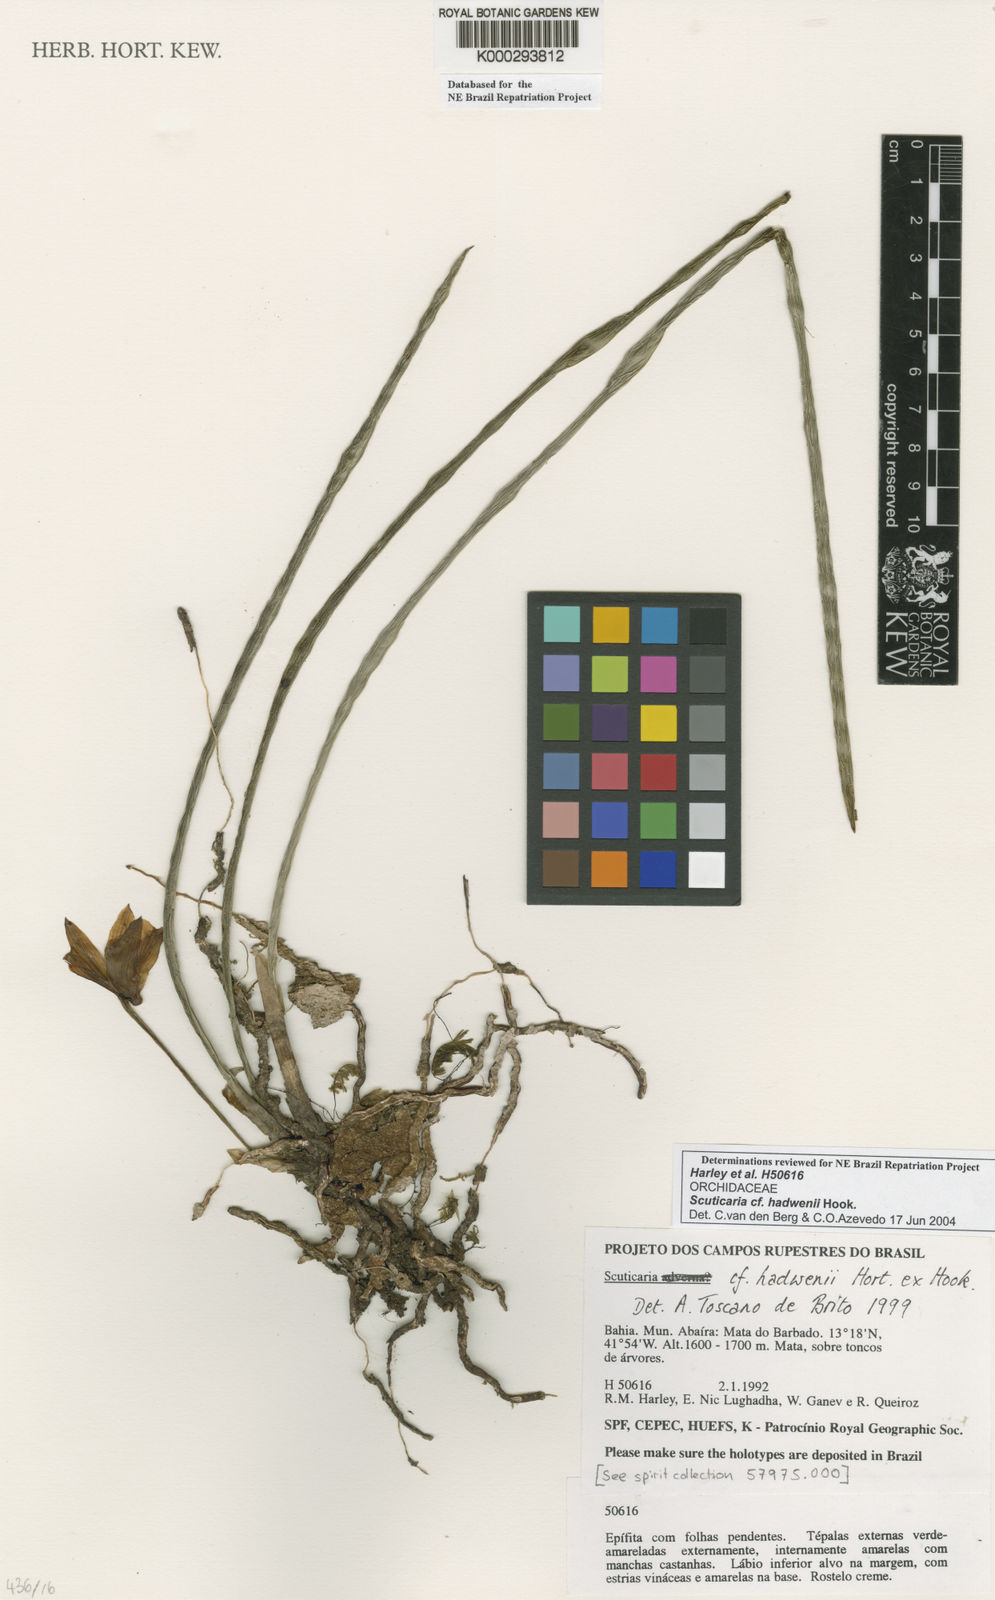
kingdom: Plantae
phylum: Tracheophyta
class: Liliopsida
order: Asparagales
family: Orchidaceae
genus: Scuticaria
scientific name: Scuticaria bahiensis
